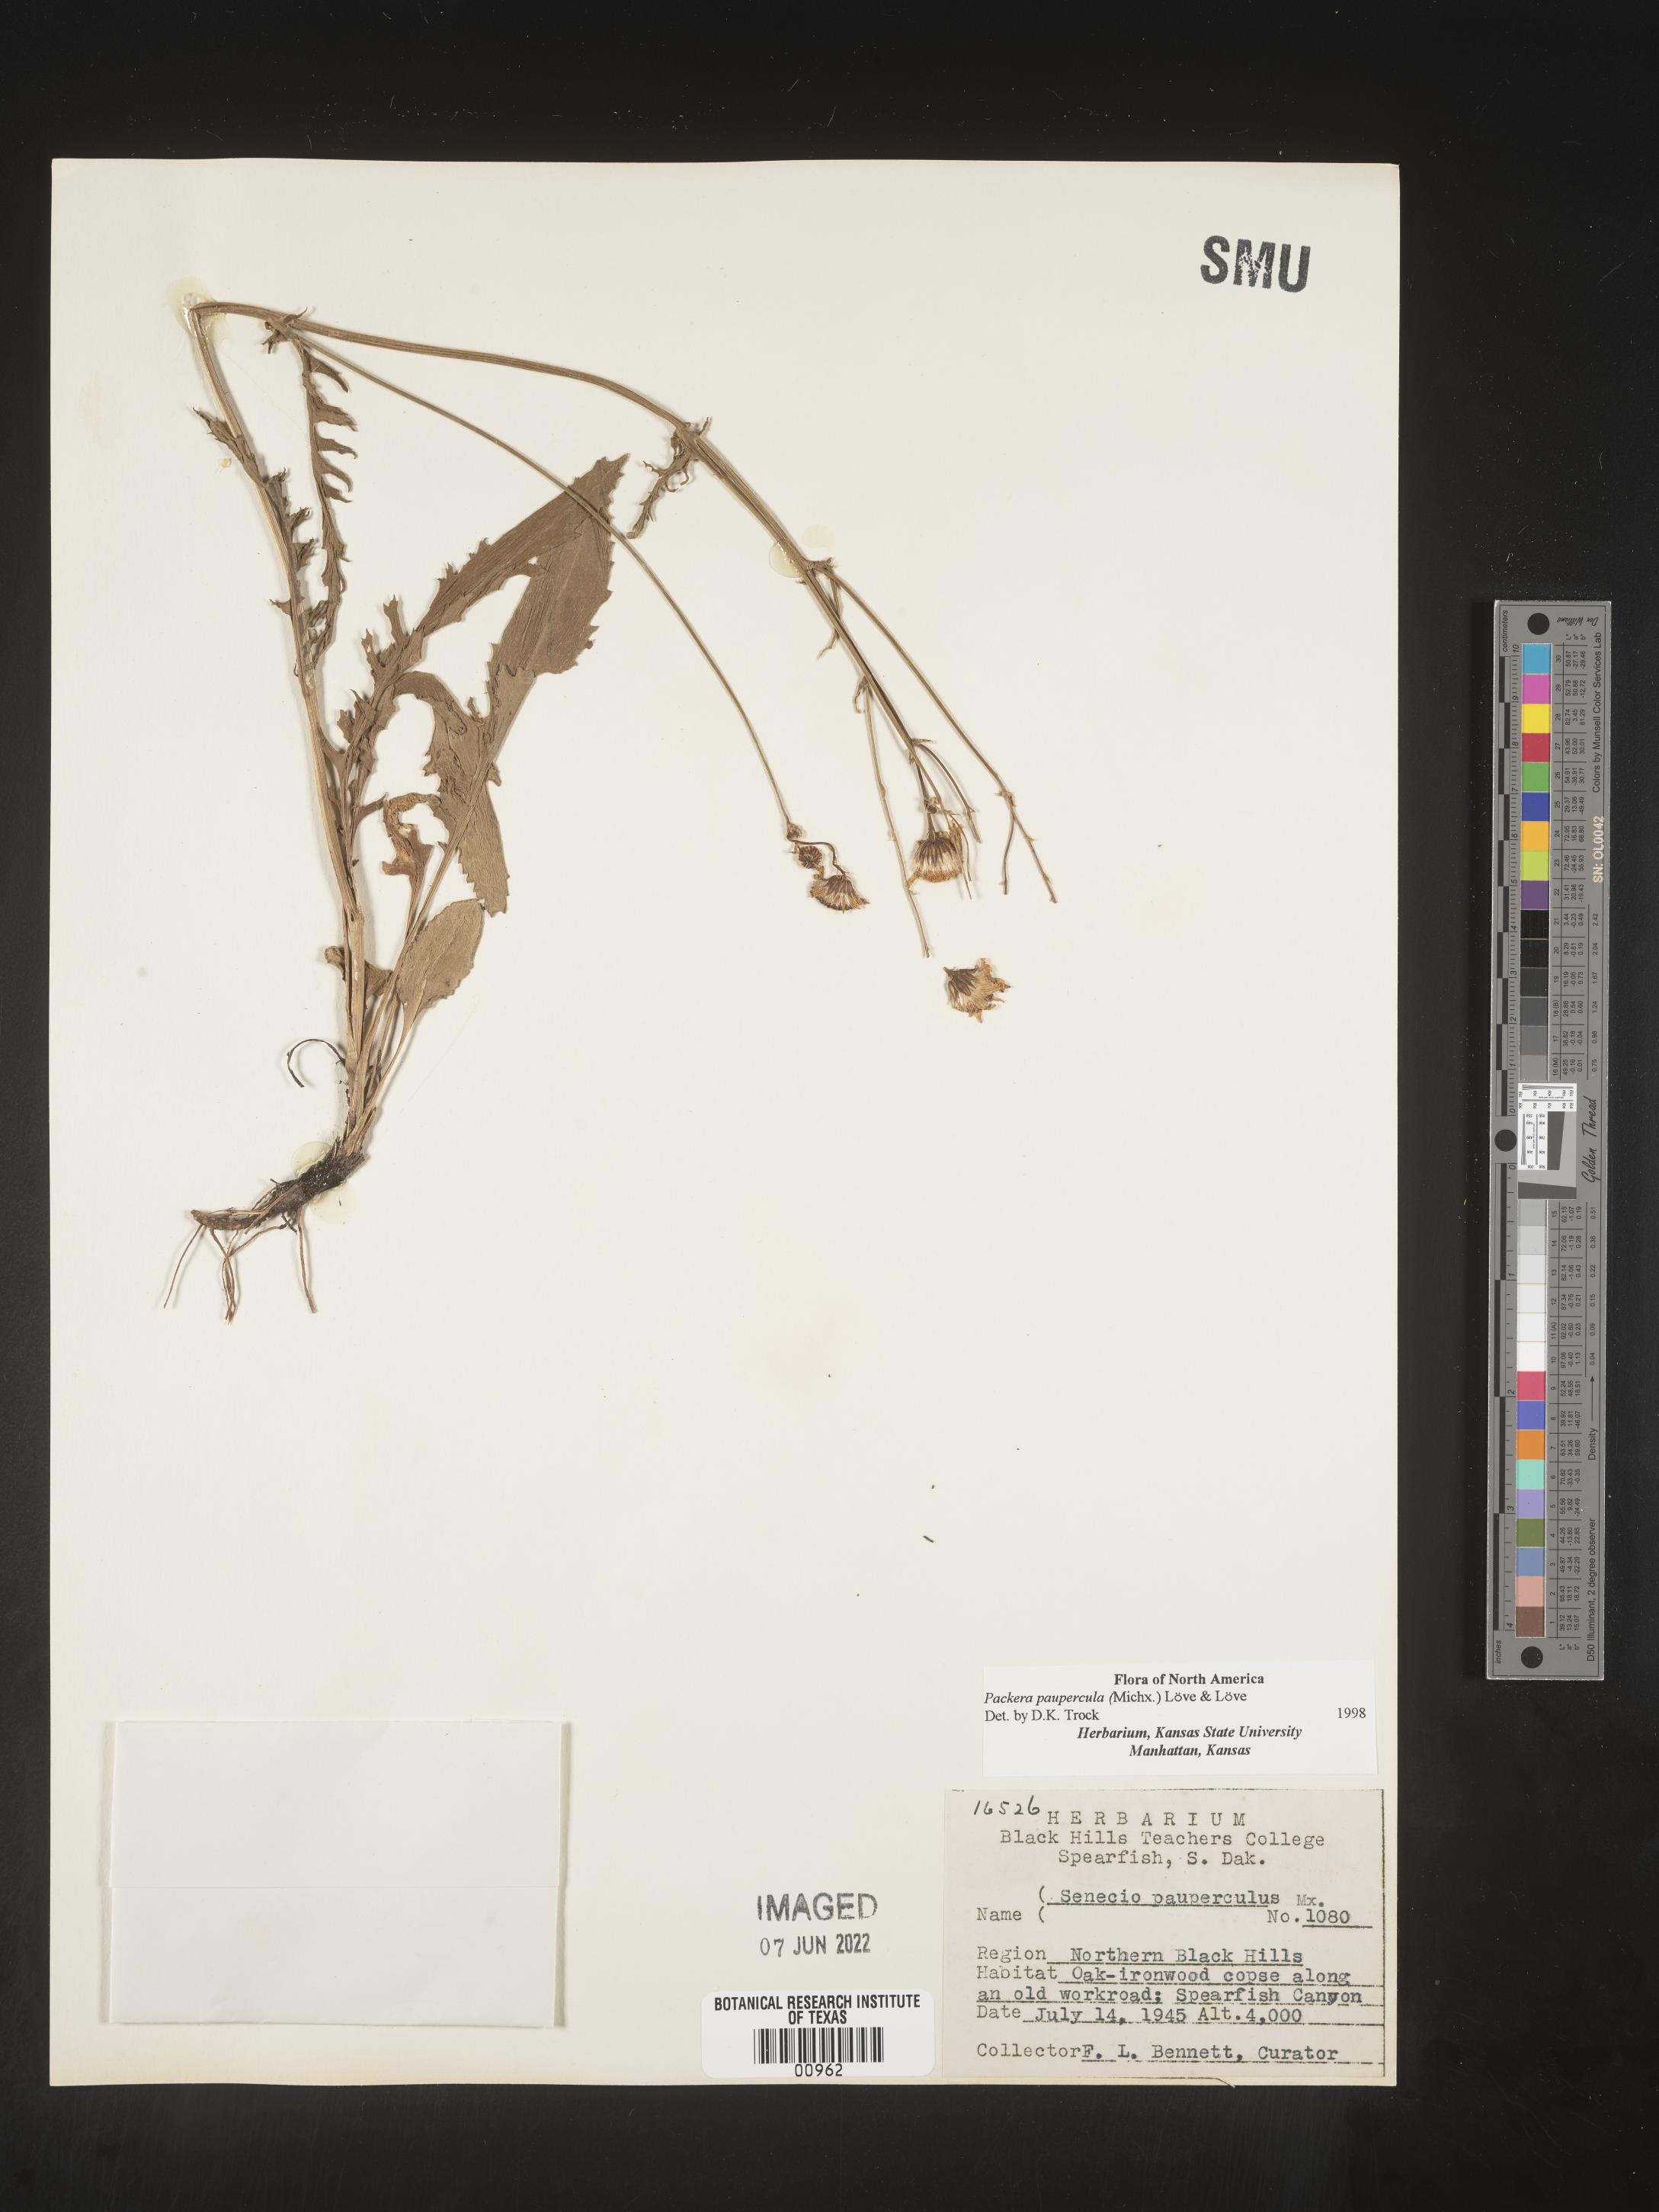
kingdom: Plantae
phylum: Tracheophyta
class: Magnoliopsida
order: Asterales
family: Asteraceae
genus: Packera
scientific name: Packera paupercula
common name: Balsam groundsel
